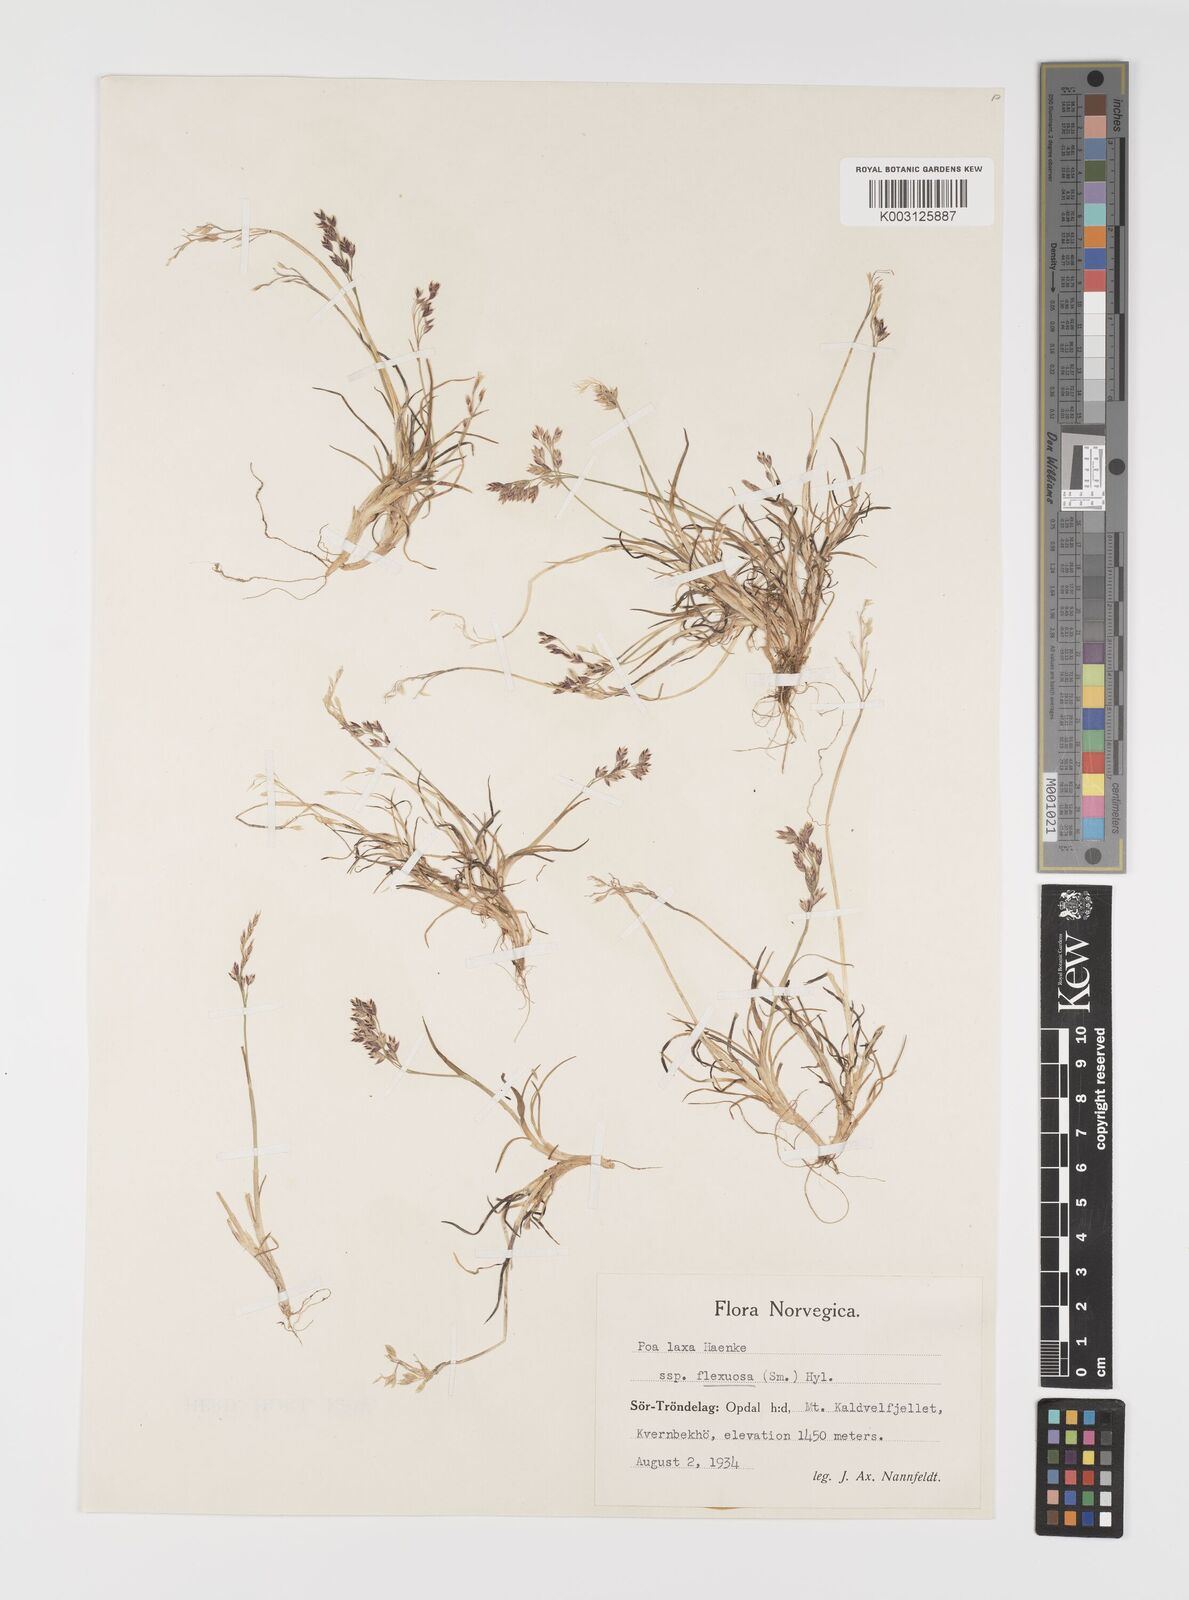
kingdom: Plantae
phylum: Tracheophyta
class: Liliopsida
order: Poales
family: Poaceae
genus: Eragrostis
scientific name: Eragrostis cilianensis
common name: Stinkgrass
